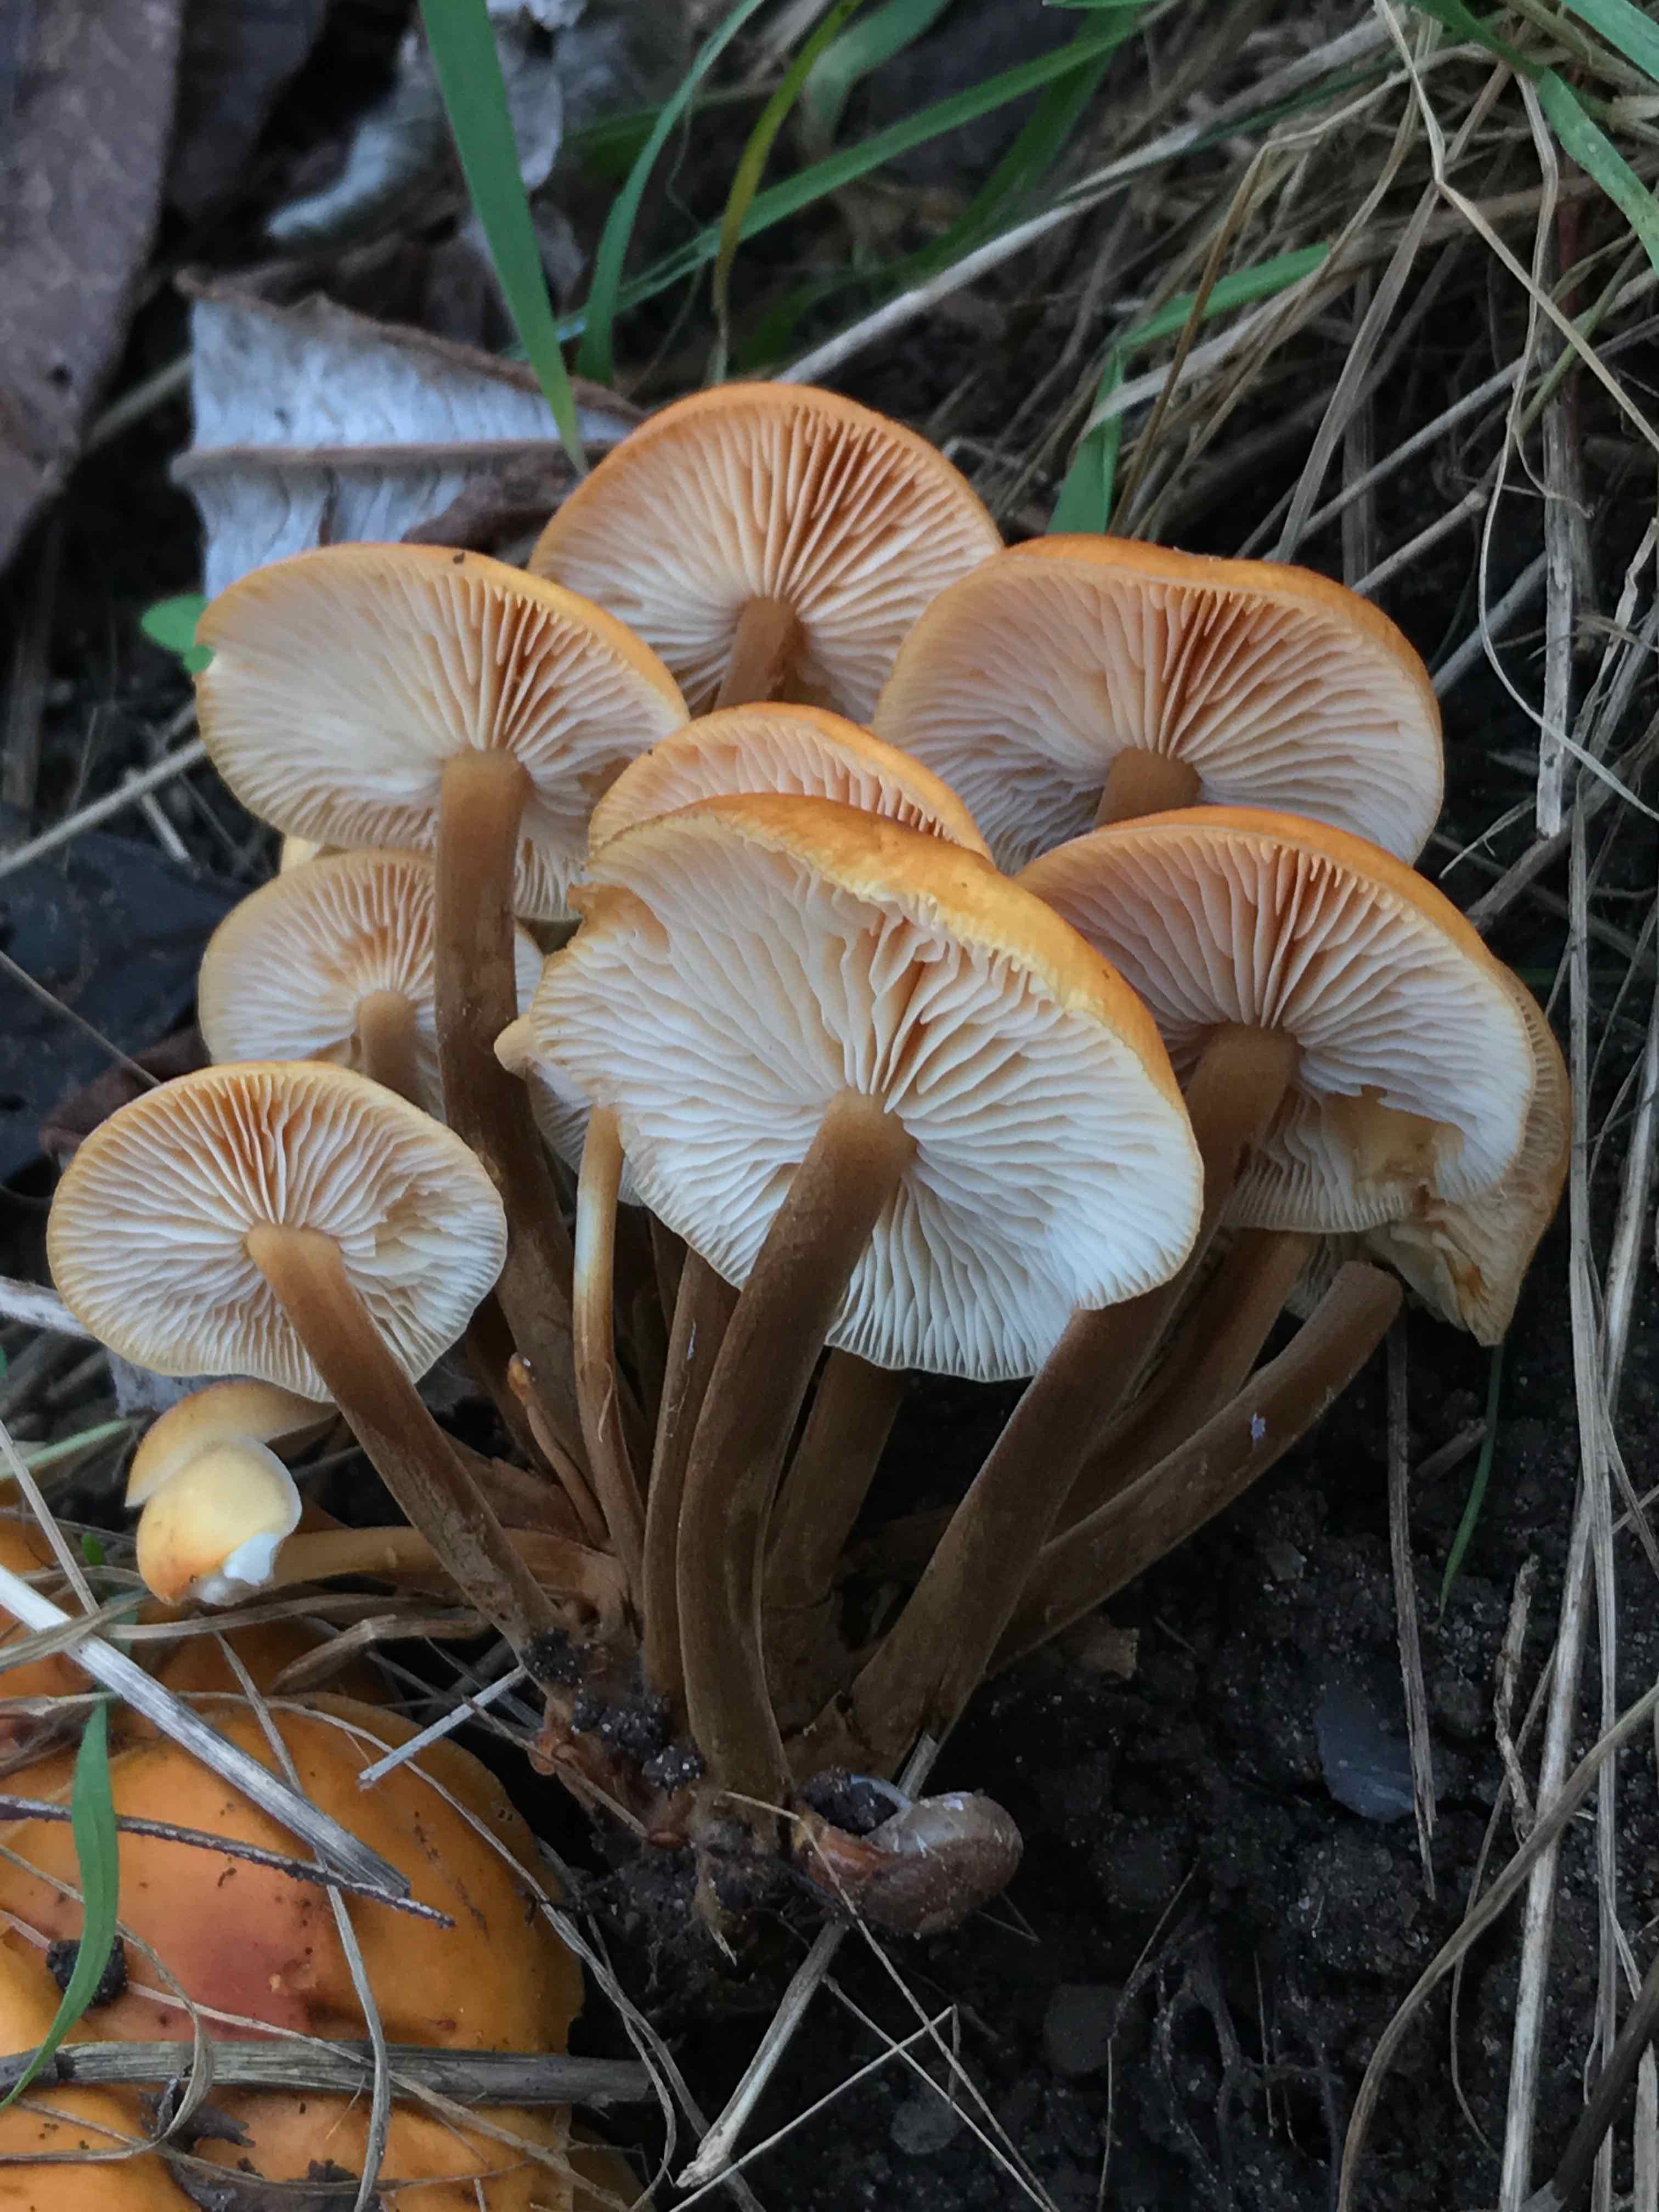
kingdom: Fungi
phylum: Basidiomycota
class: Agaricomycetes
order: Agaricales
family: Physalacriaceae
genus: Flammulina
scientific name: Flammulina velutipes
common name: gul fløjlsfod
